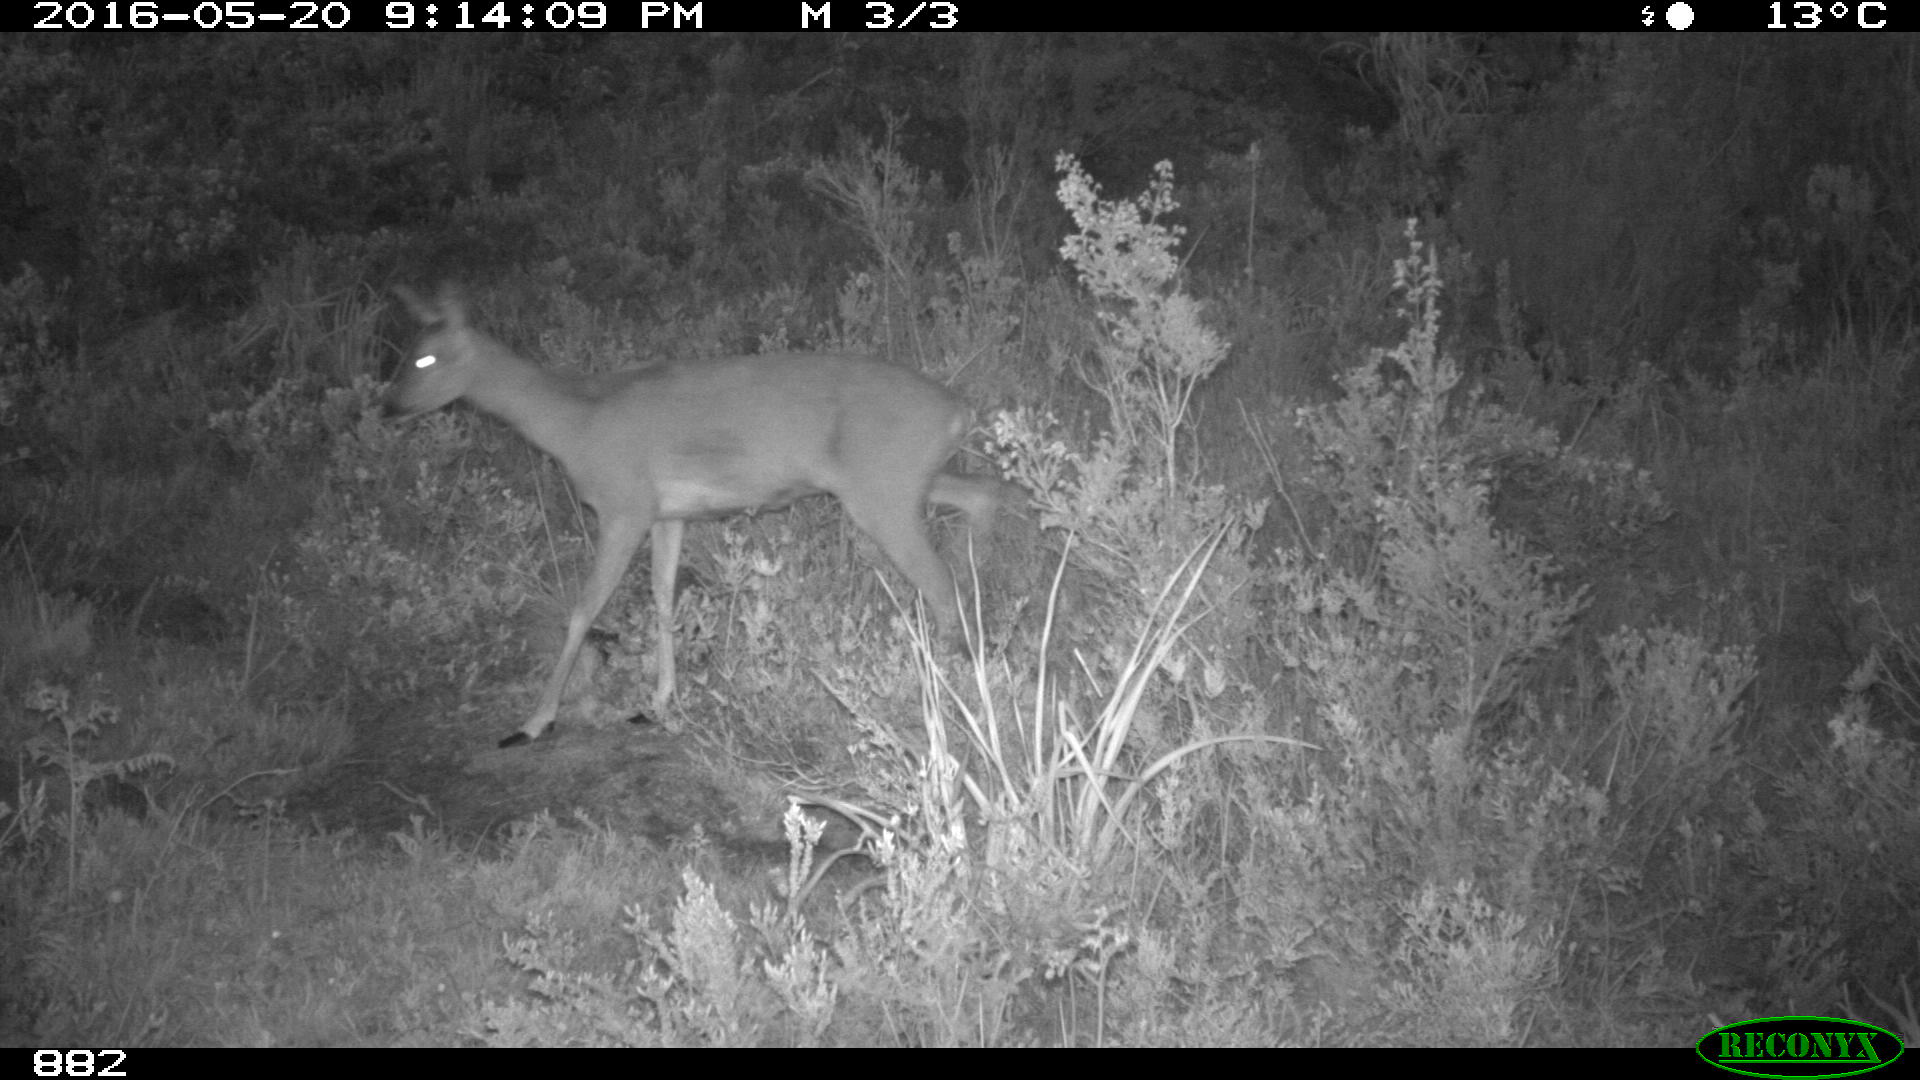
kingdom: Animalia
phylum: Chordata
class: Mammalia
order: Artiodactyla
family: Cervidae
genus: Capreolus
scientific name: Capreolus capreolus
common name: Western roe deer
